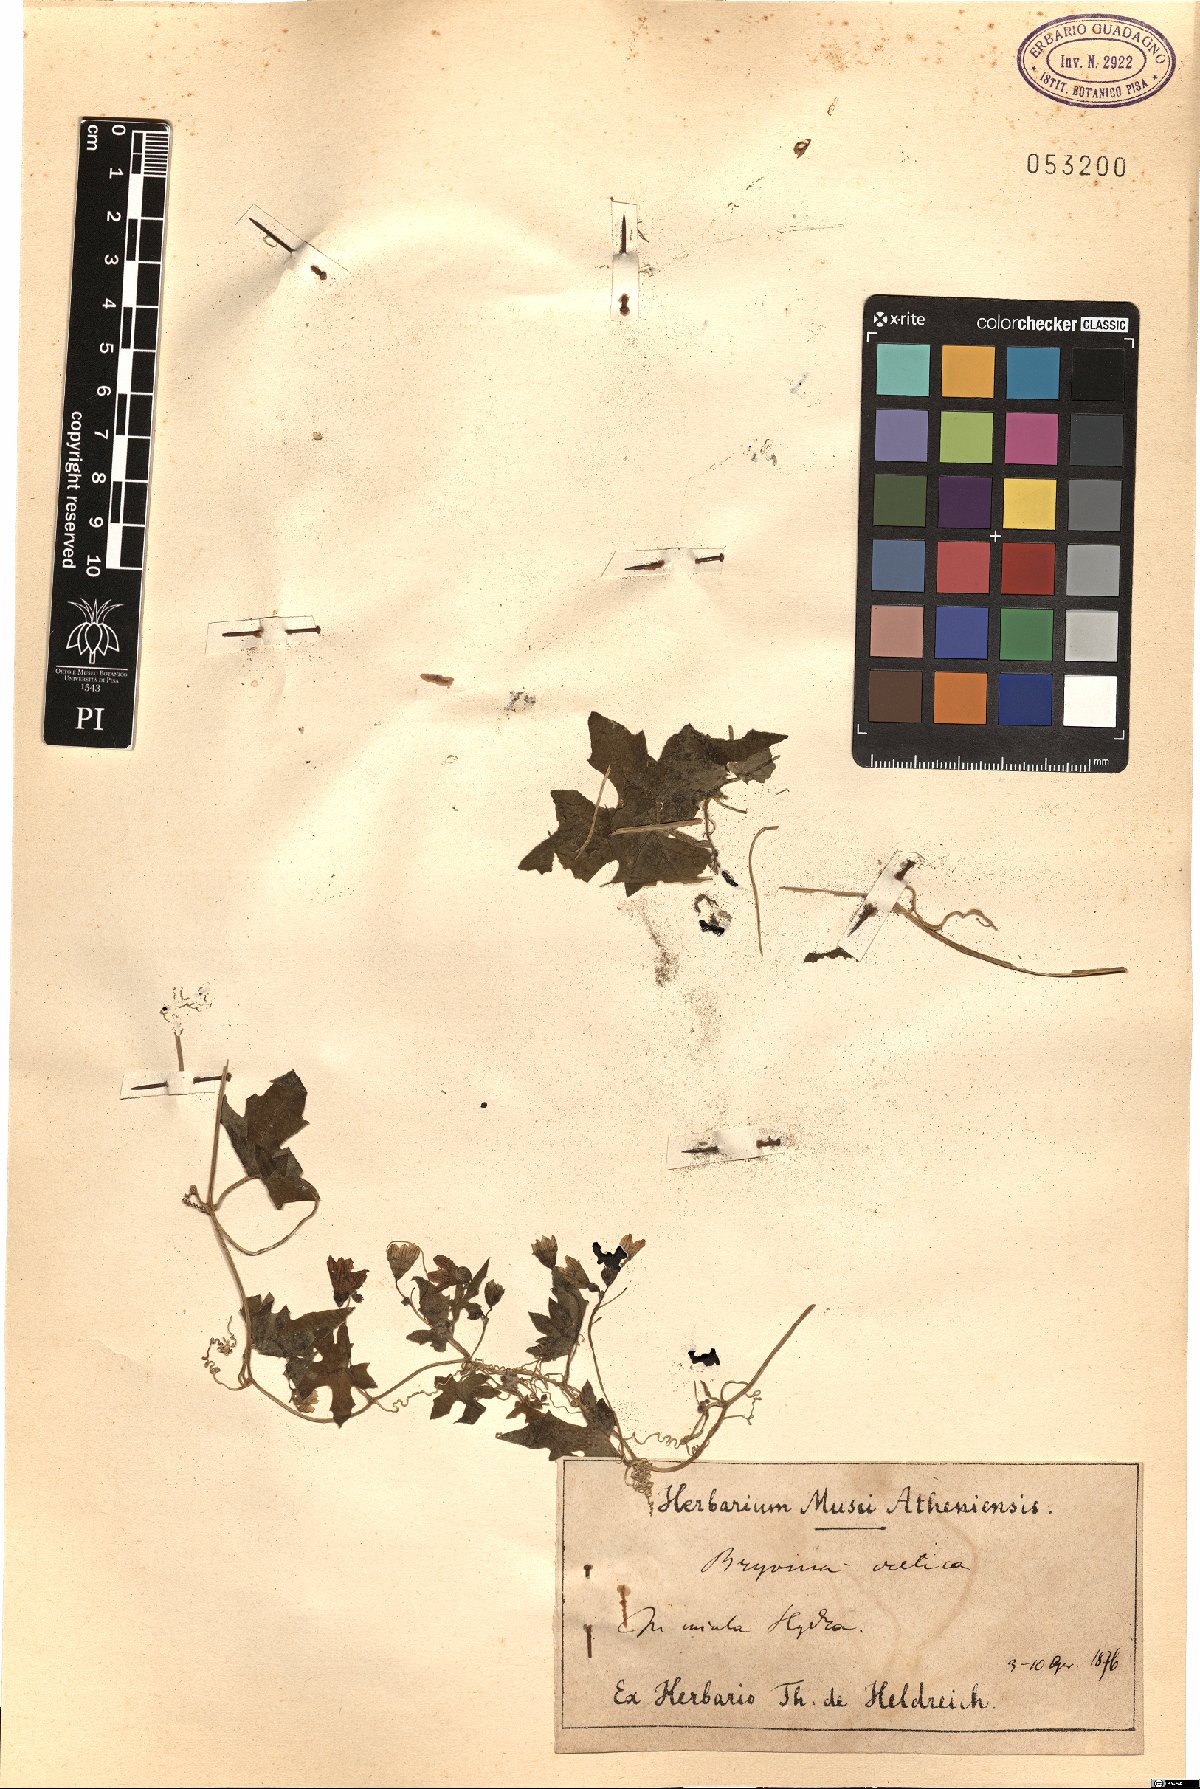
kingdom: Plantae
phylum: Tracheophyta
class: Magnoliopsida
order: Cucurbitales
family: Cucurbitaceae
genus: Bryonia
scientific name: Bryonia cretica
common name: Cretan bryony
